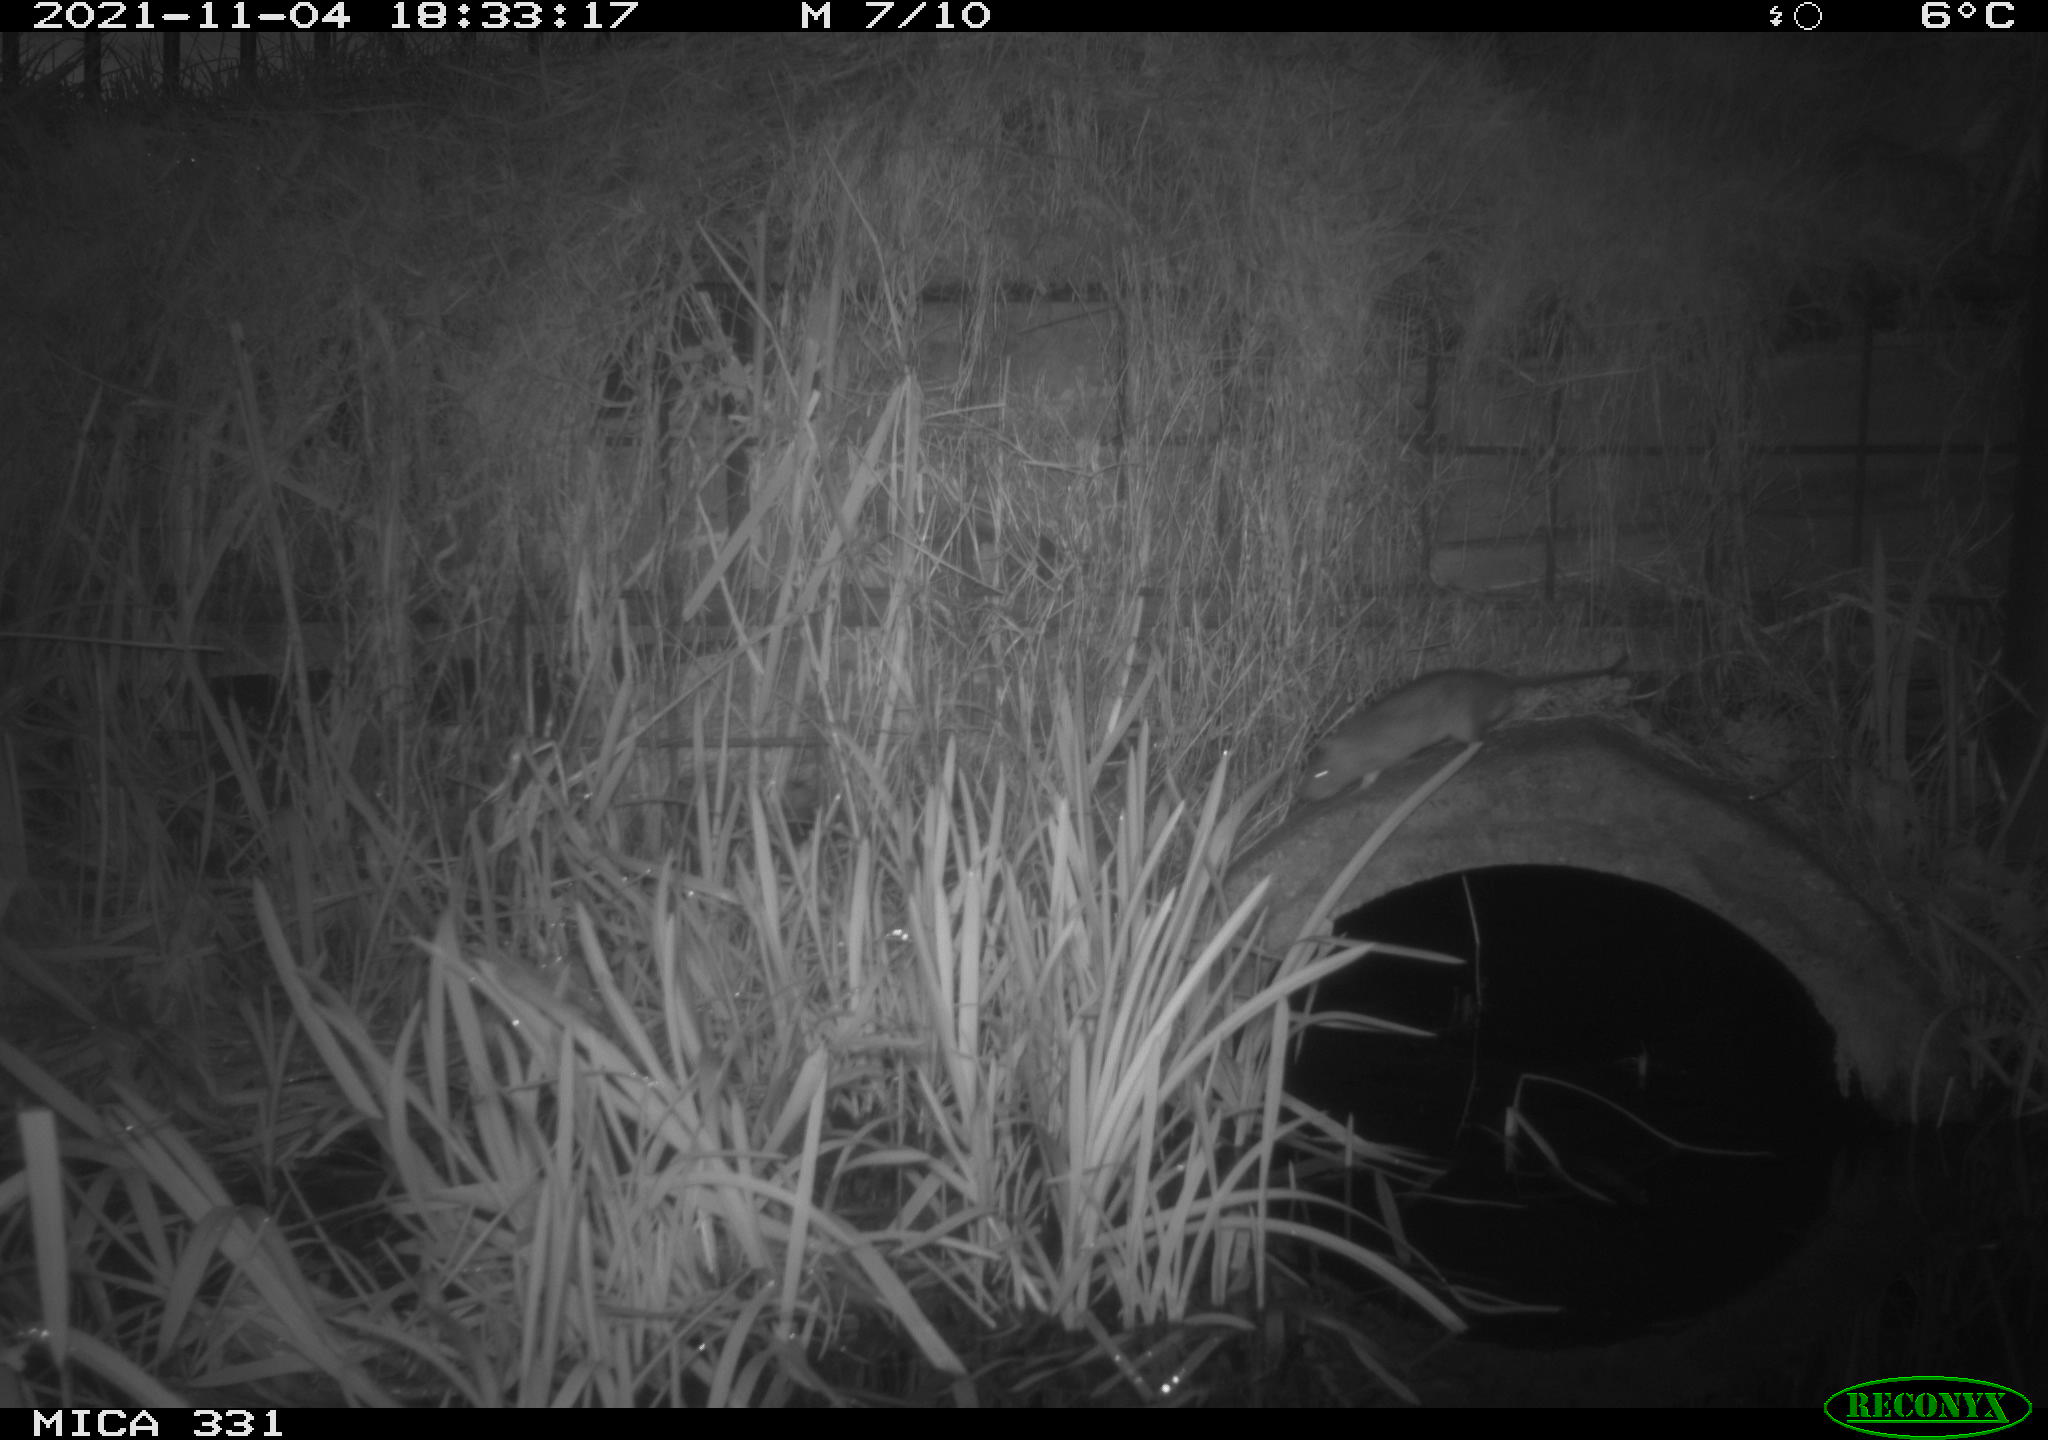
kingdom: Animalia
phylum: Chordata
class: Mammalia
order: Rodentia
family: Muridae
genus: Rattus
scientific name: Rattus norvegicus
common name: Brown rat
